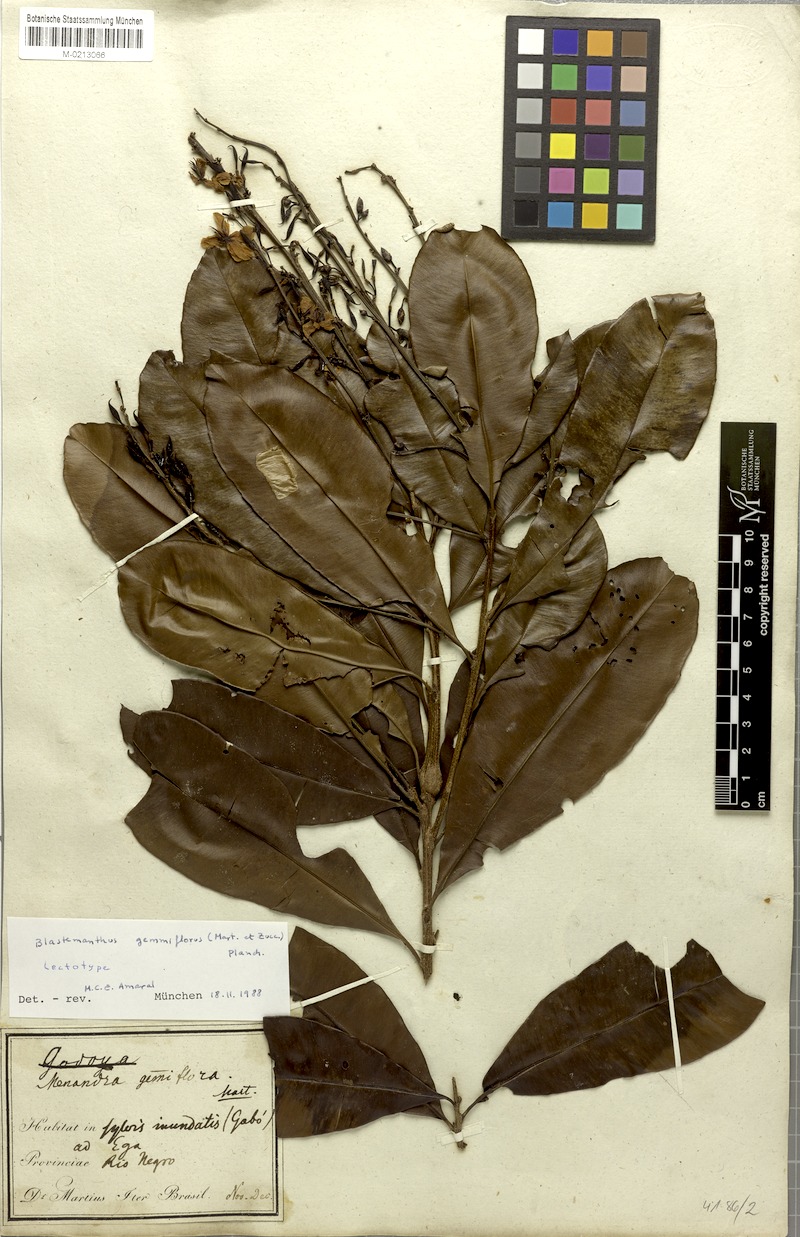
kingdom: Plantae
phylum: Tracheophyta
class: Magnoliopsida
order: Malpighiales
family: Ochnaceae
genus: Blastemanthus
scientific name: Blastemanthus gemmiflorus
